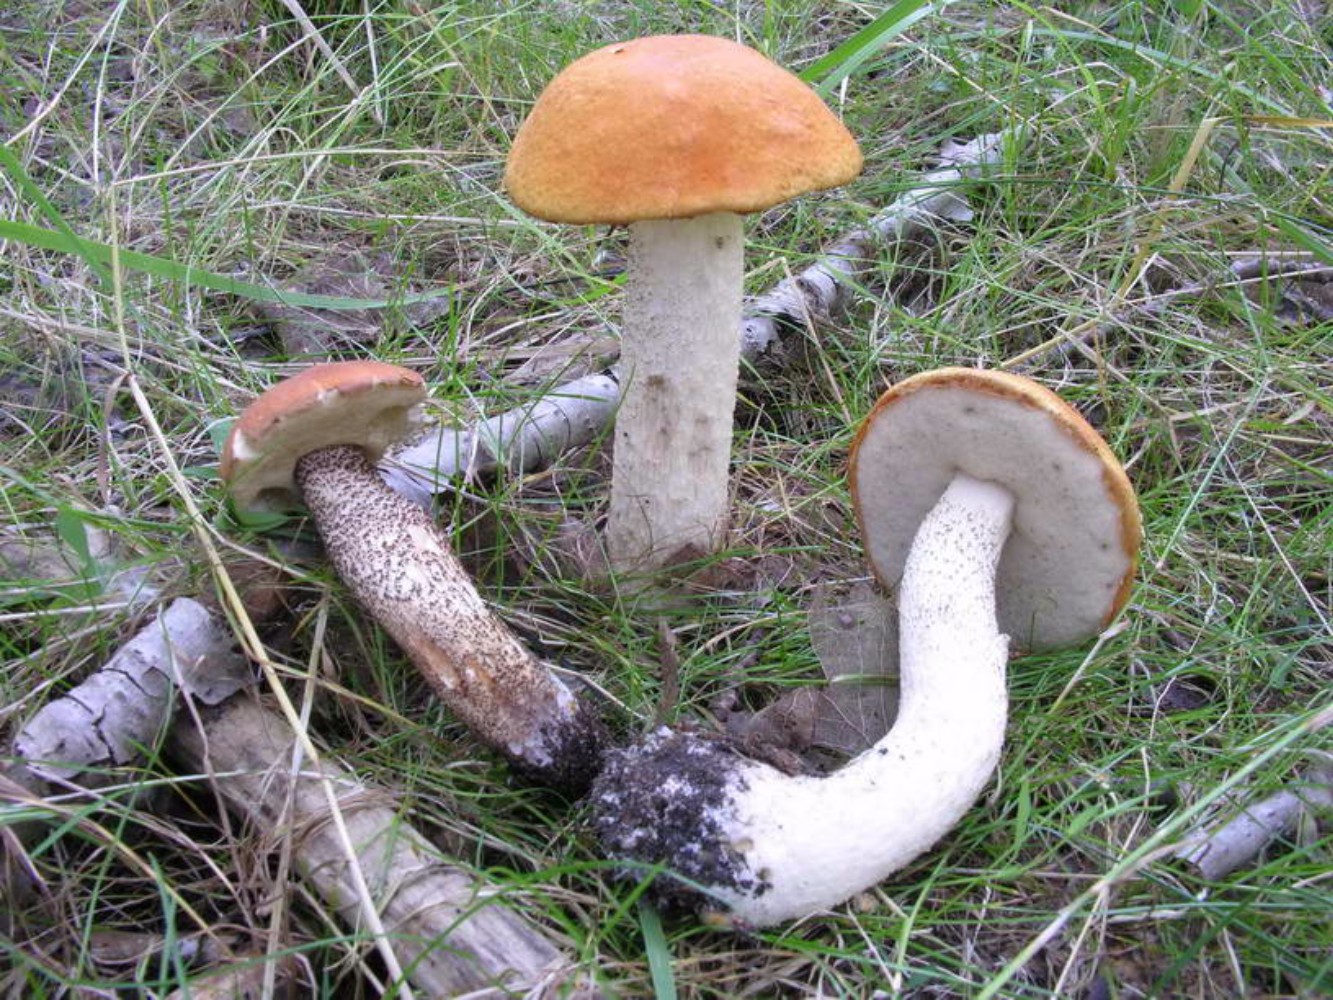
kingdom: Fungi
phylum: Basidiomycota
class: Agaricomycetes
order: Boletales
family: Boletaceae
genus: Leccinum
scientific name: Leccinum albostipitatum
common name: aspe-skælrørhat
